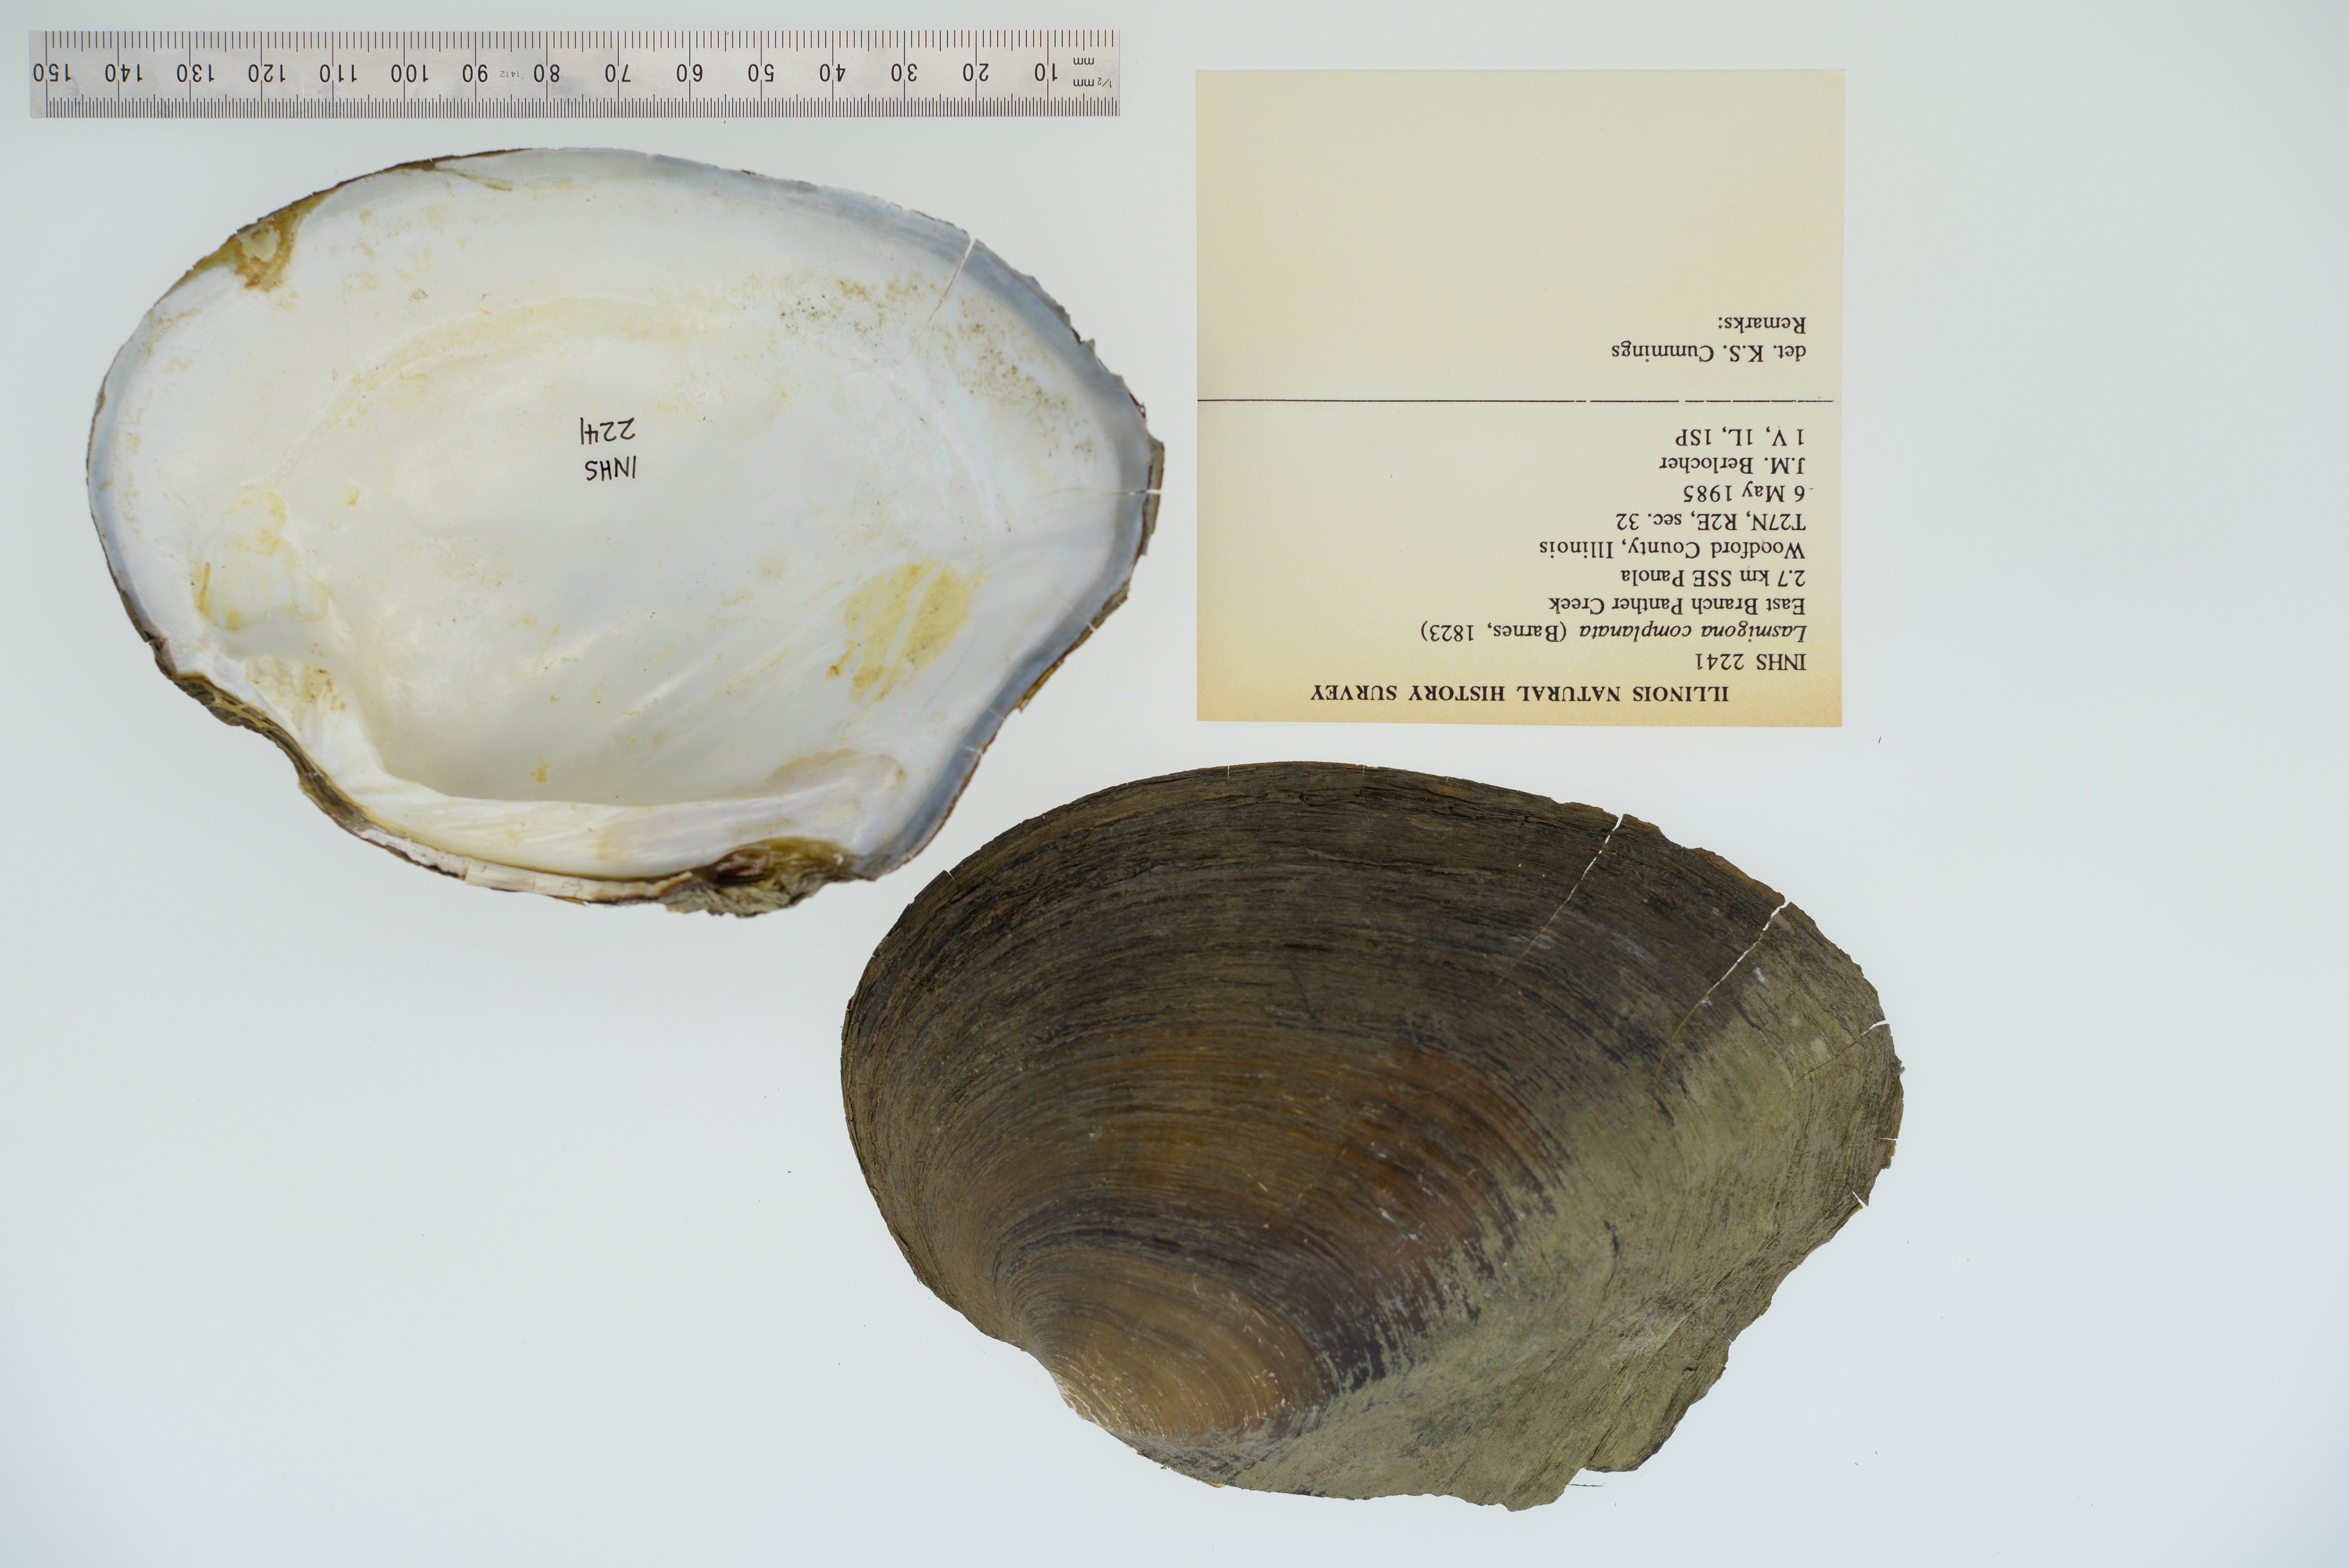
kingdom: Animalia
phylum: Mollusca
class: Bivalvia
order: Unionida
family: Unionidae
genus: Lasmigona
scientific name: Lasmigona complanata
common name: White heelsplitter
